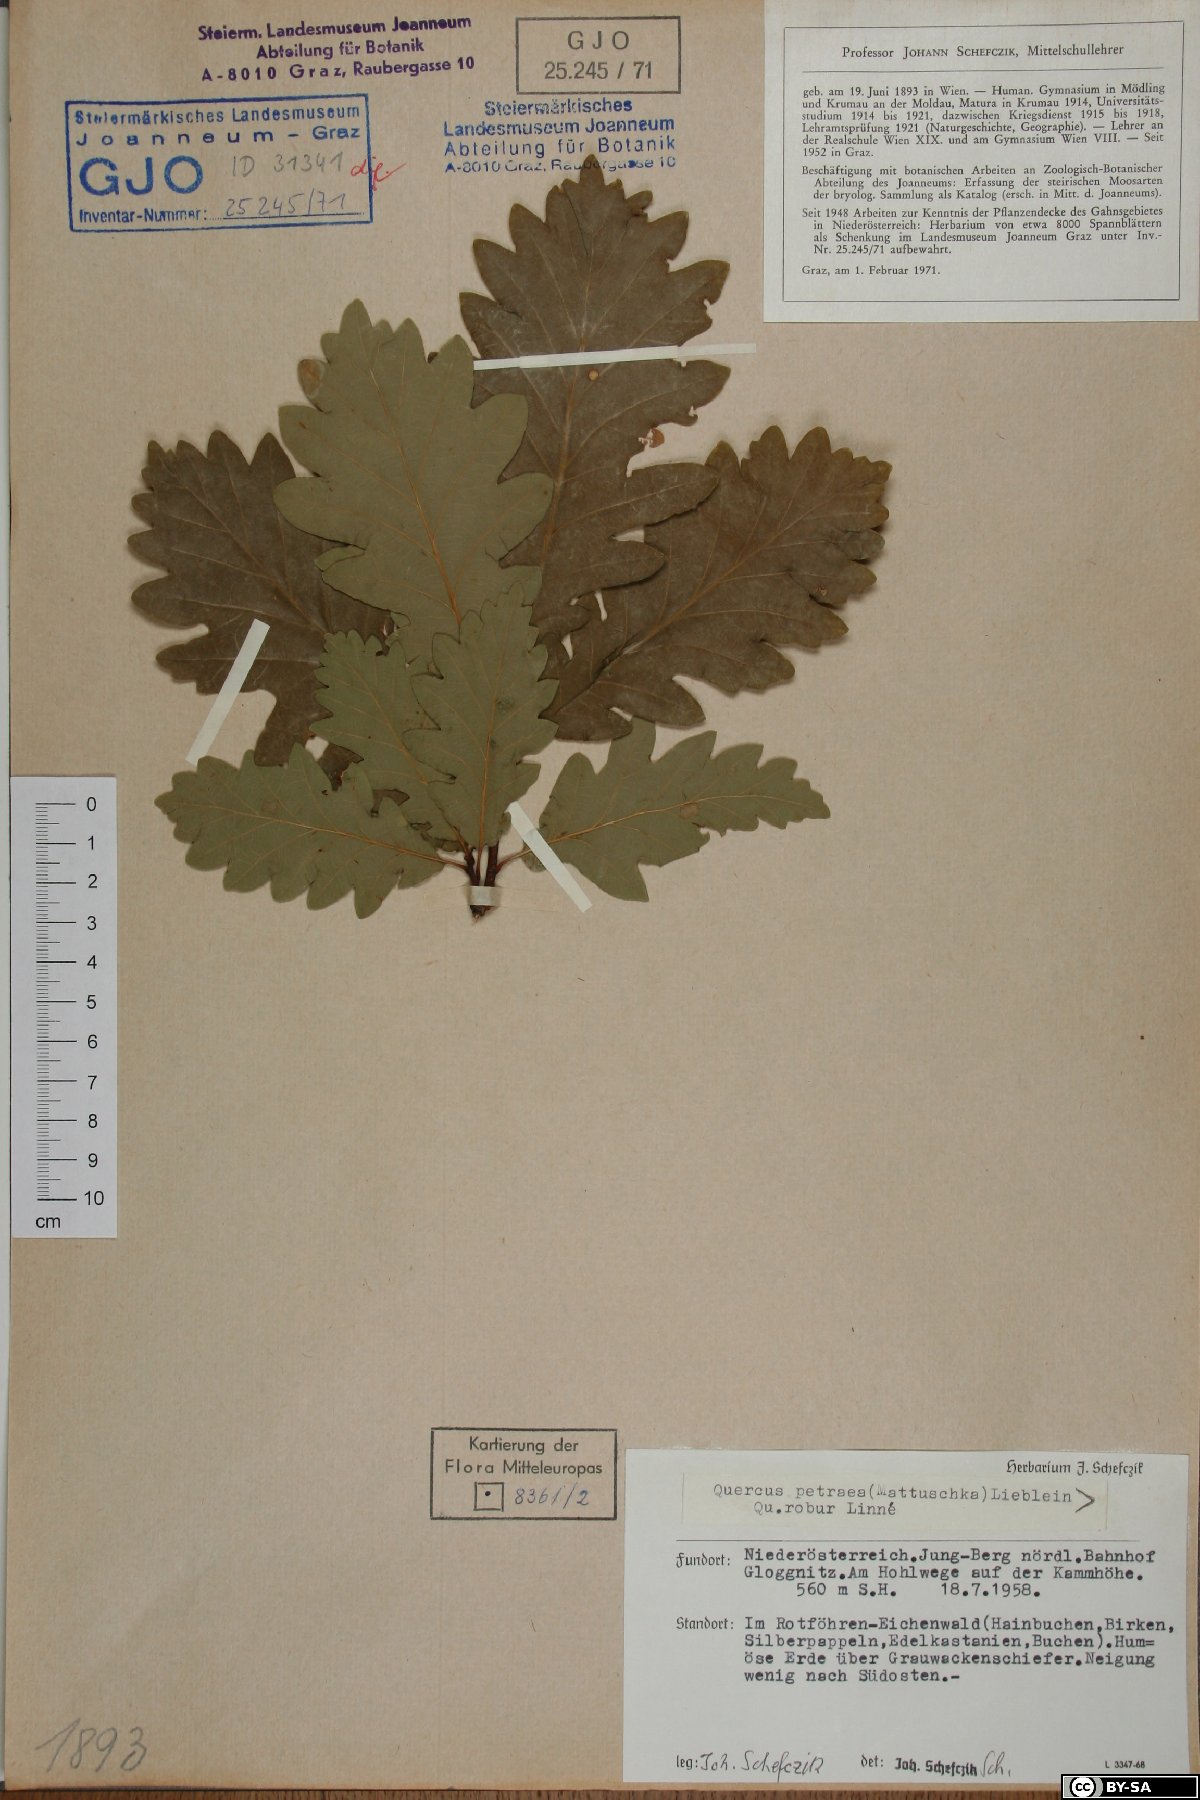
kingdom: Plantae
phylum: Tracheophyta
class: Magnoliopsida
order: Fagales
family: Fagaceae
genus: Quercus
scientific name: Quercus petraea
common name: Sessile oak
